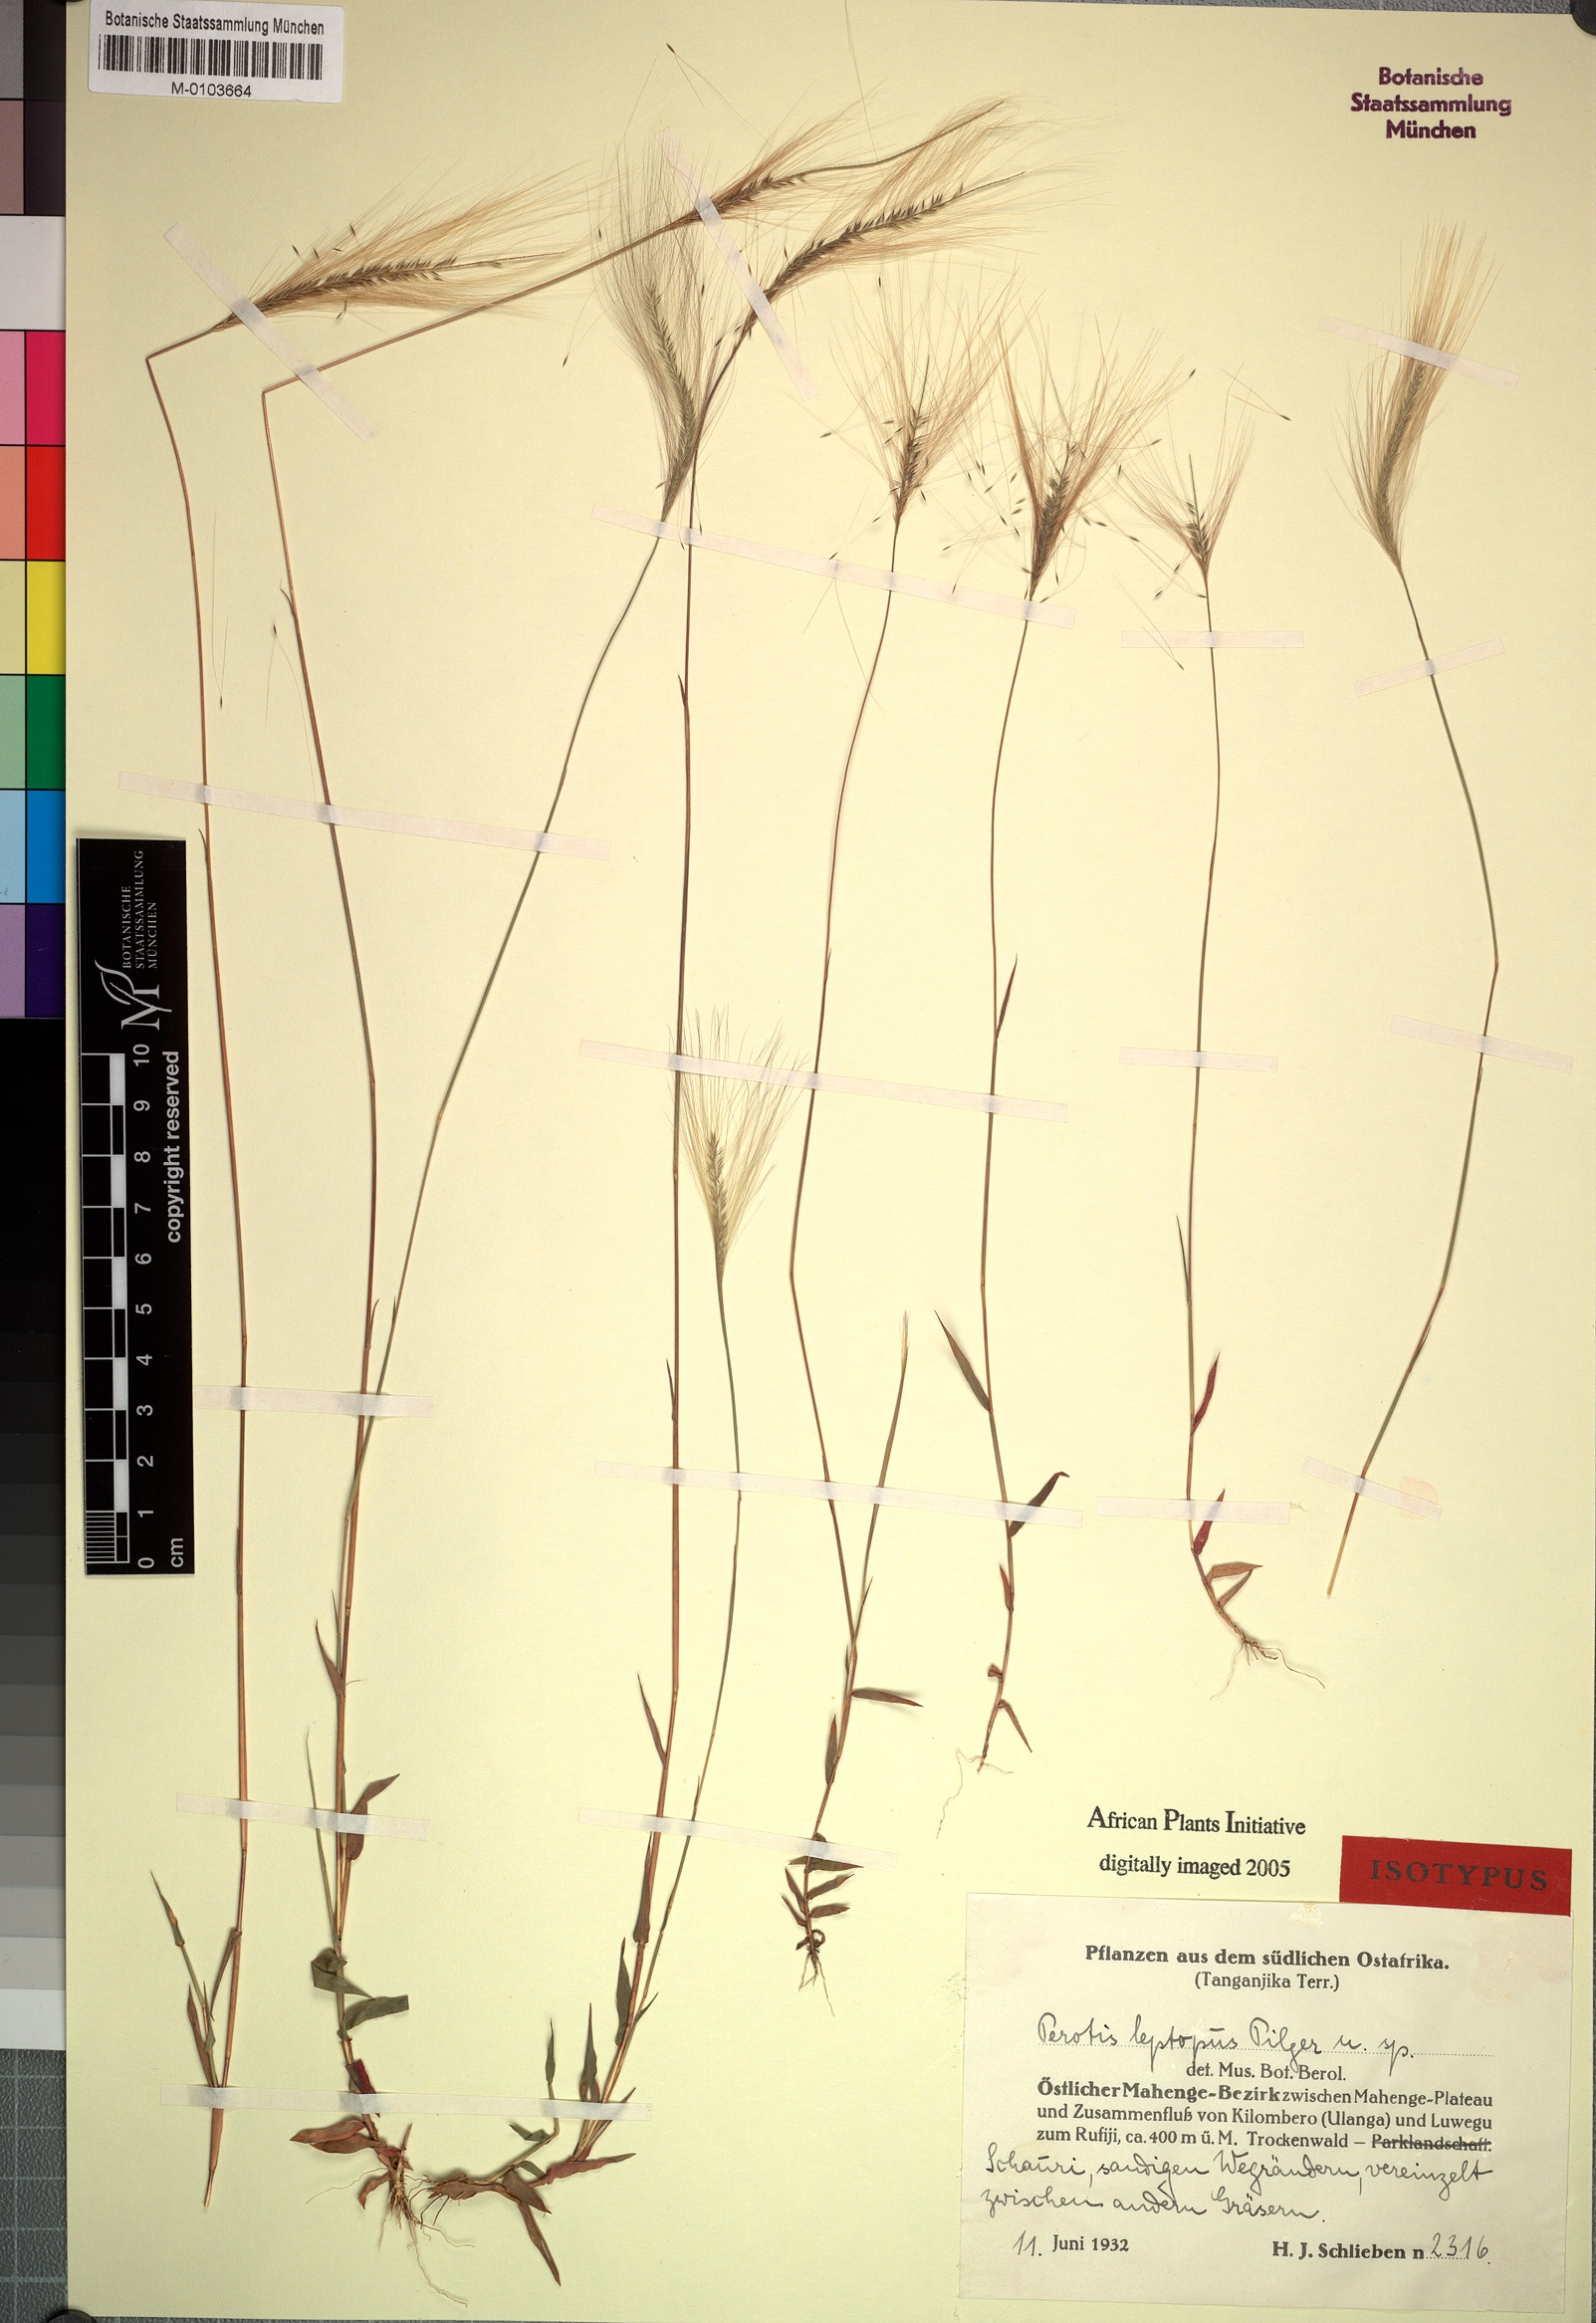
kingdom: Plantae
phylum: Tracheophyta
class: Liliopsida
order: Poales
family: Poaceae
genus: Perotis
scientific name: Perotis leptopus
